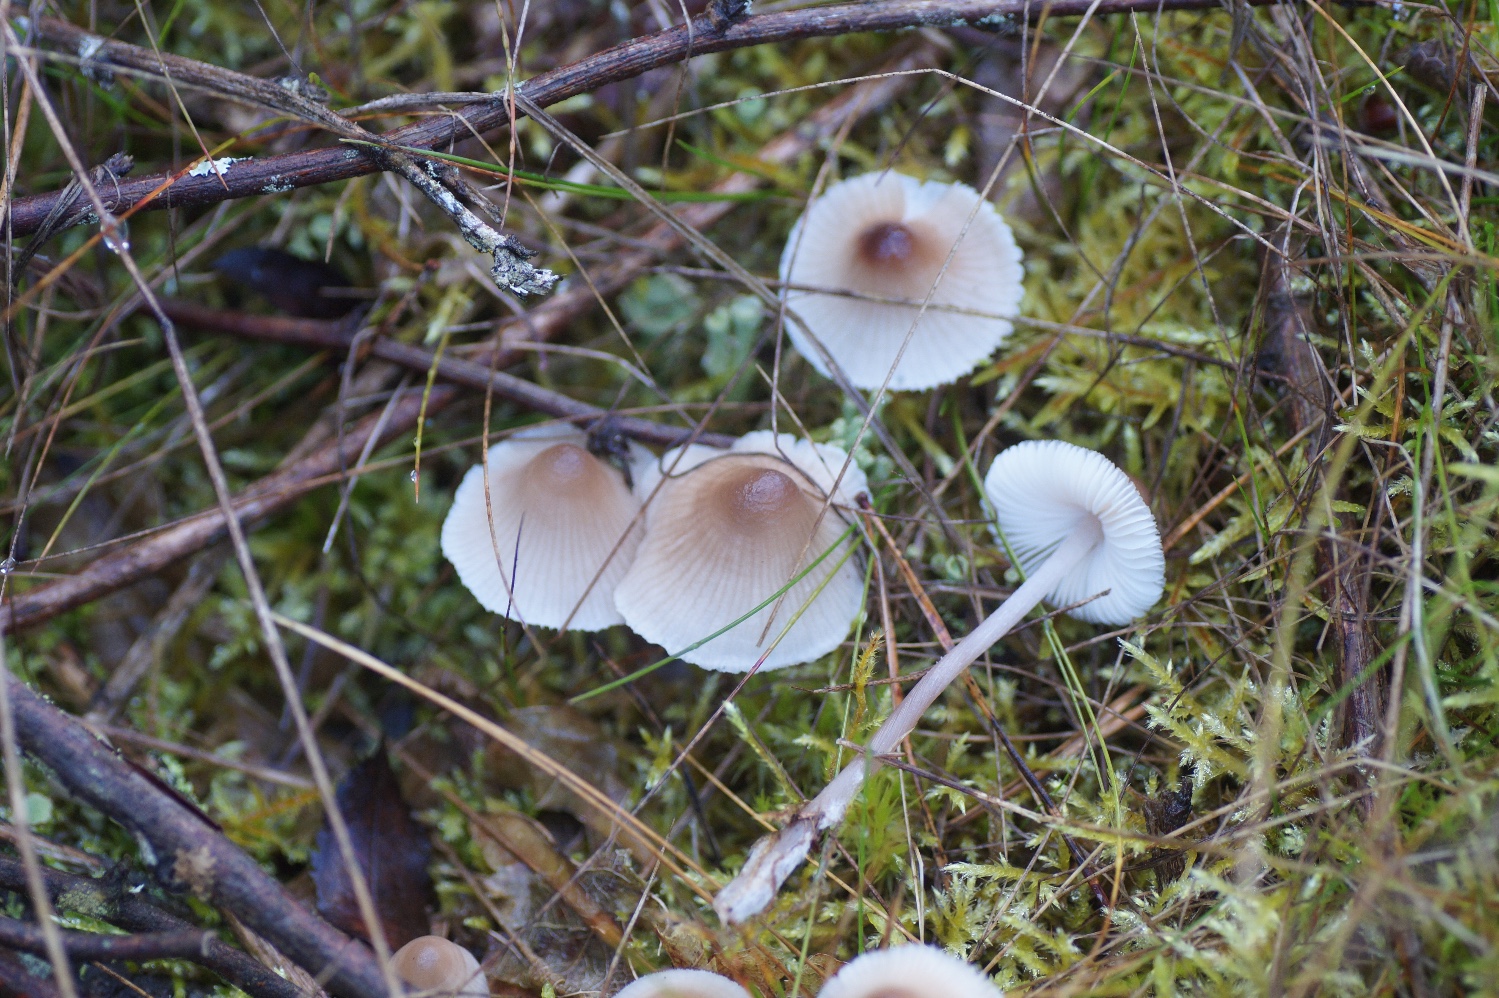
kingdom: Fungi
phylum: Basidiomycota
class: Agaricomycetes
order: Agaricales
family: Mycenaceae
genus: Mycena
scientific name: Mycena zephirus
